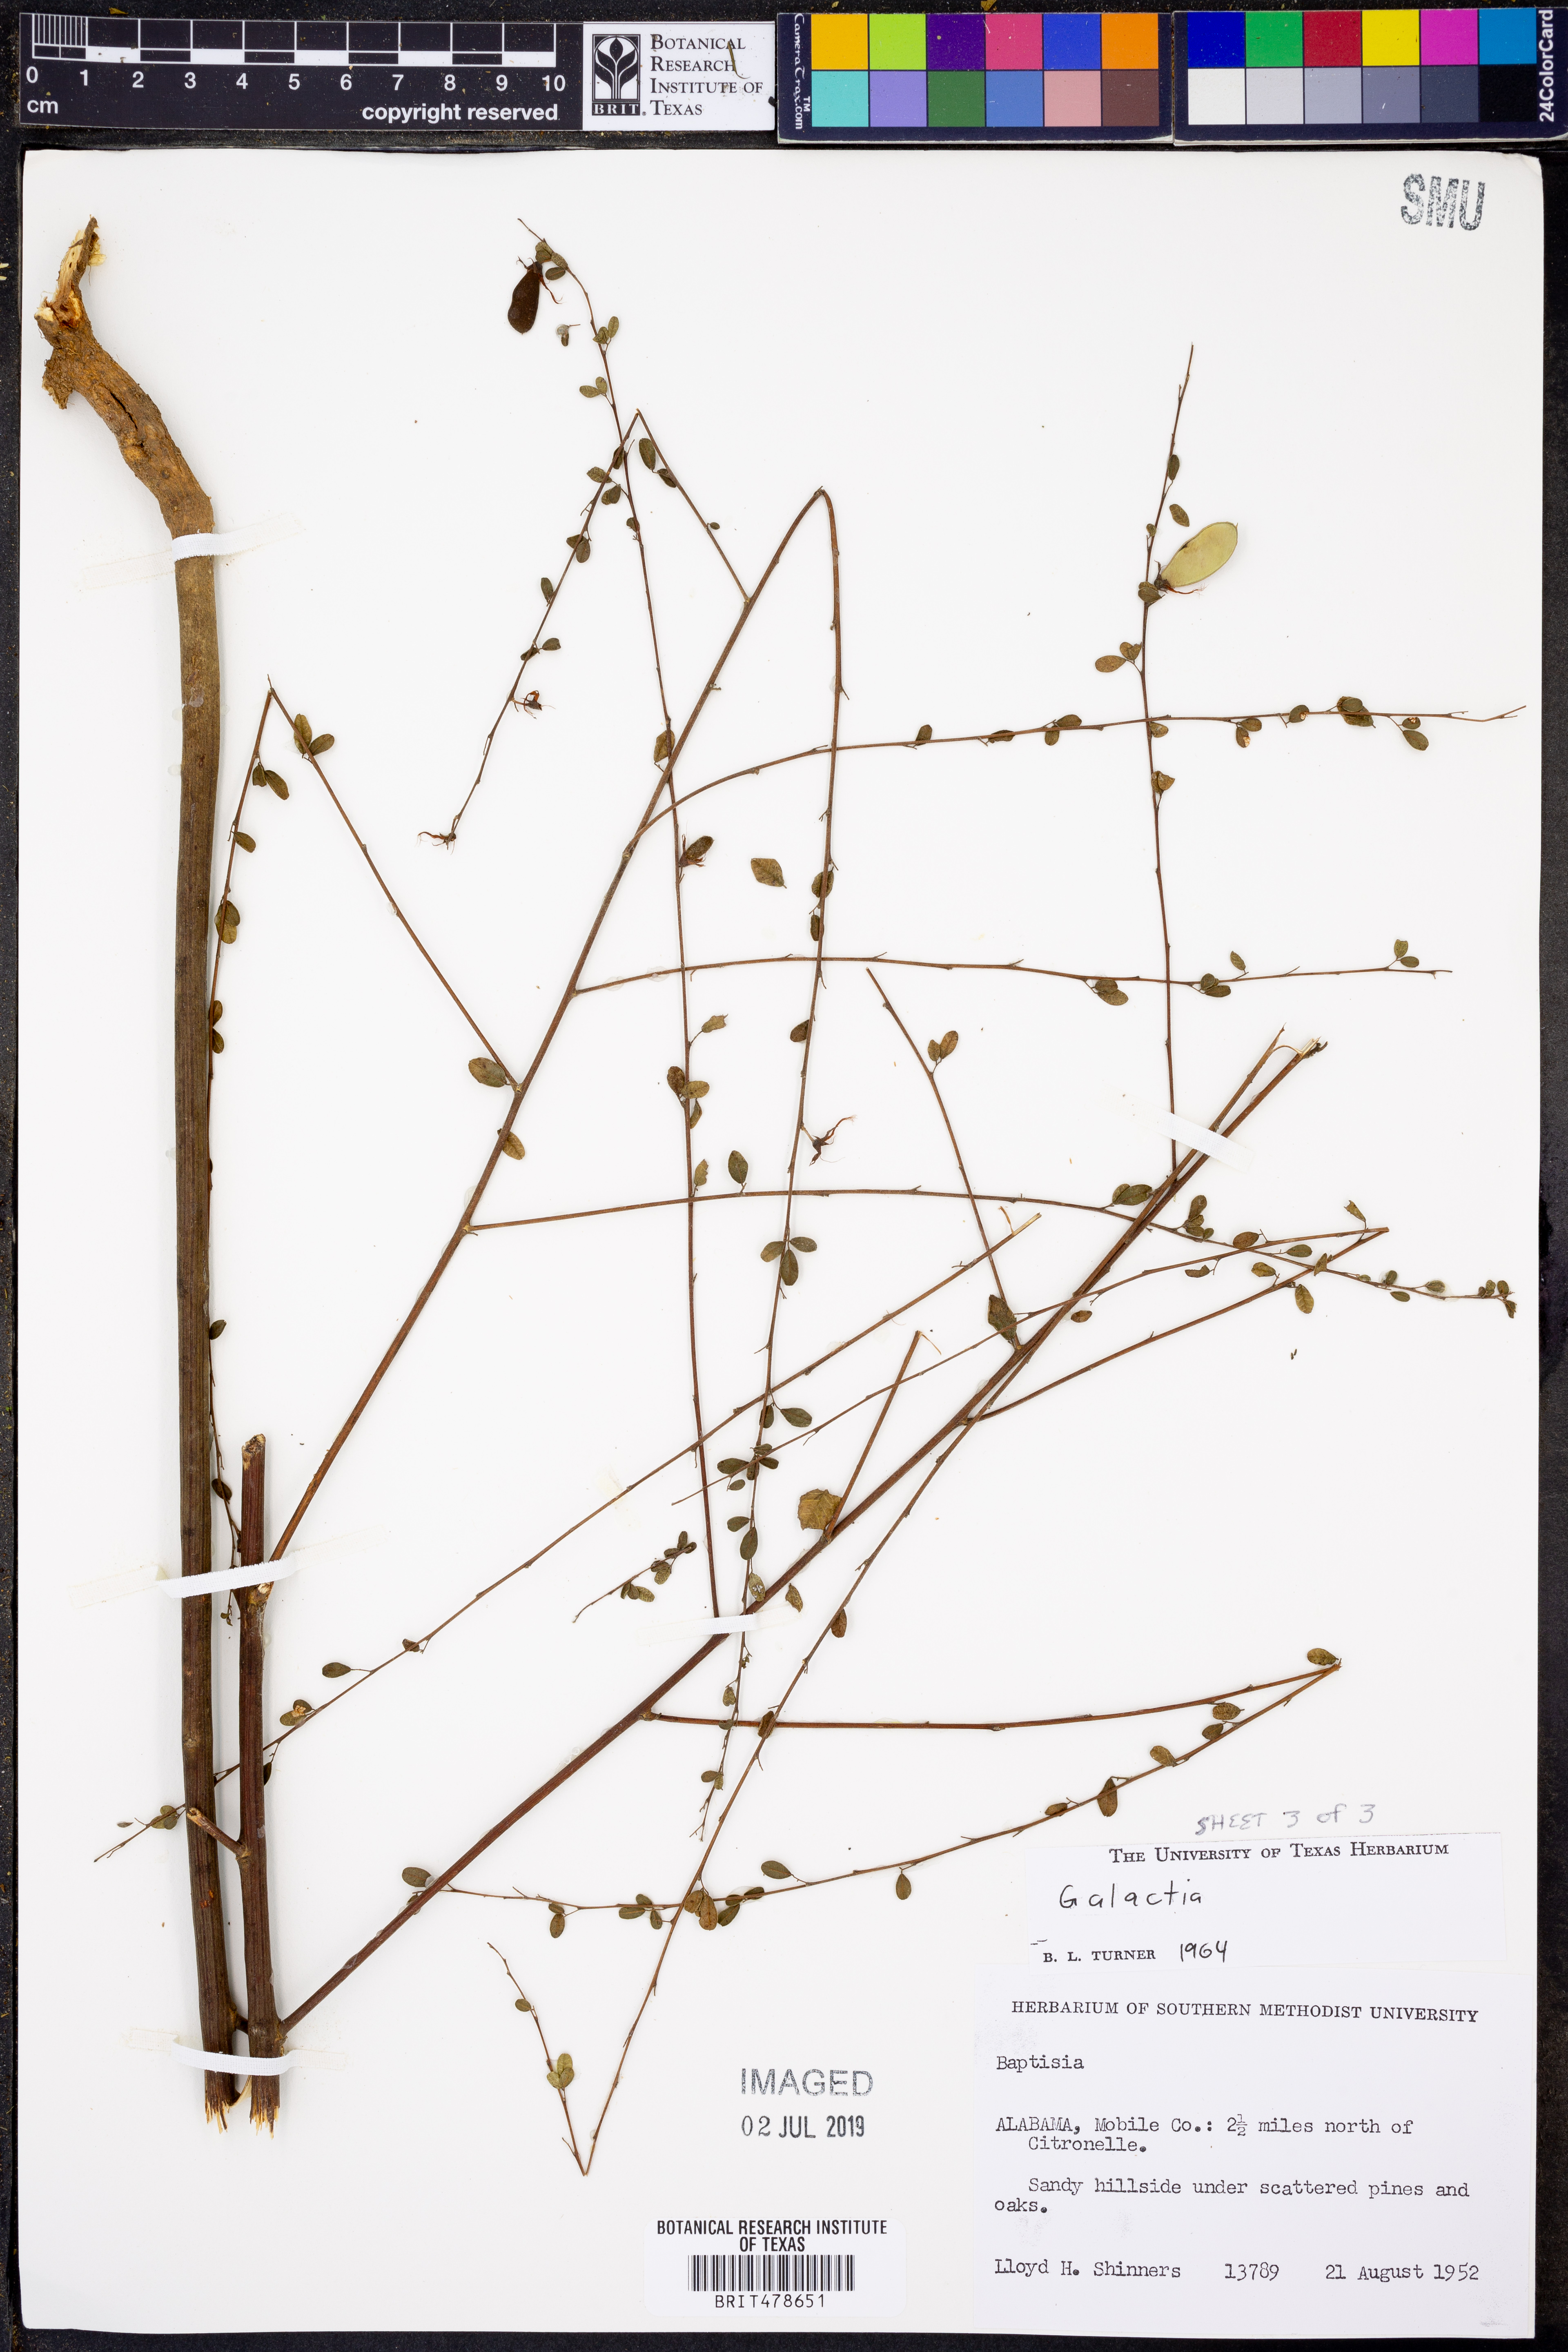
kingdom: Plantae
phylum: Tracheophyta
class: Magnoliopsida
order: Fabales
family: Fabaceae
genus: Galactia
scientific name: Galactia
